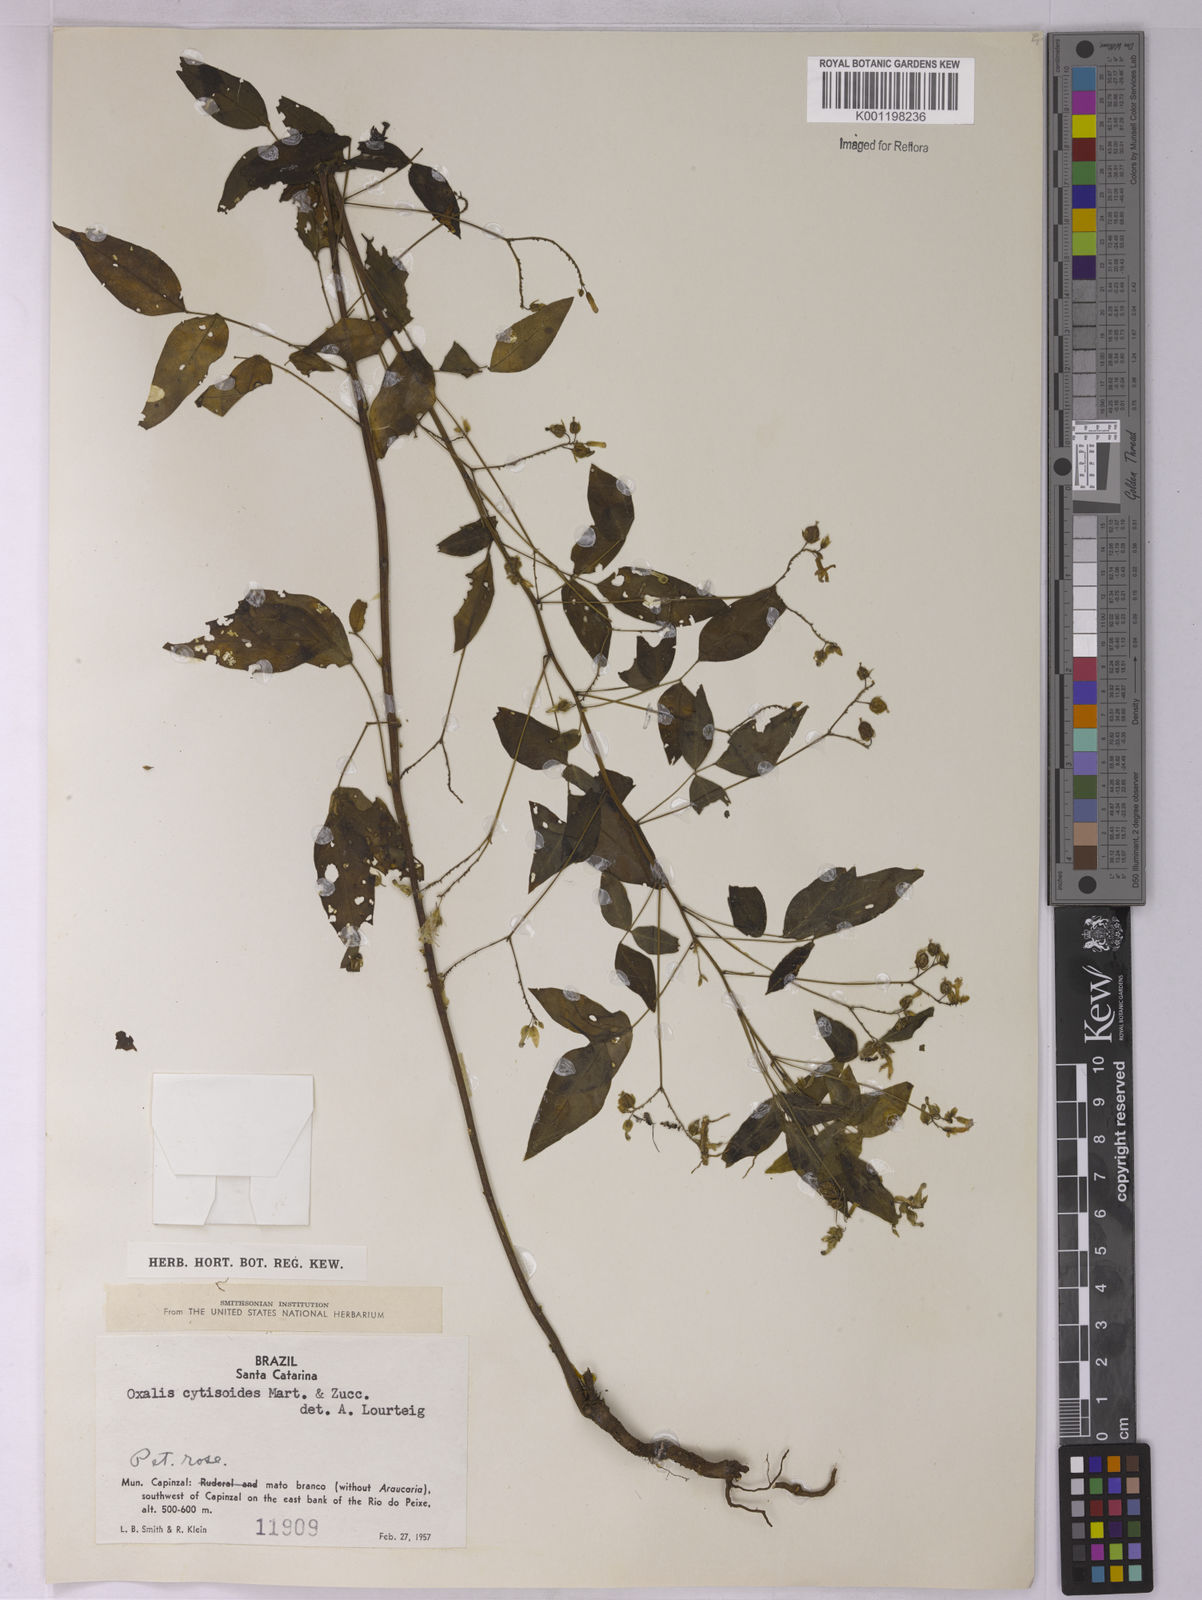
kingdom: Plantae
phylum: Tracheophyta
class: Magnoliopsida
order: Oxalidales
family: Oxalidaceae
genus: Oxalis
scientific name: Oxalis cytisoides
